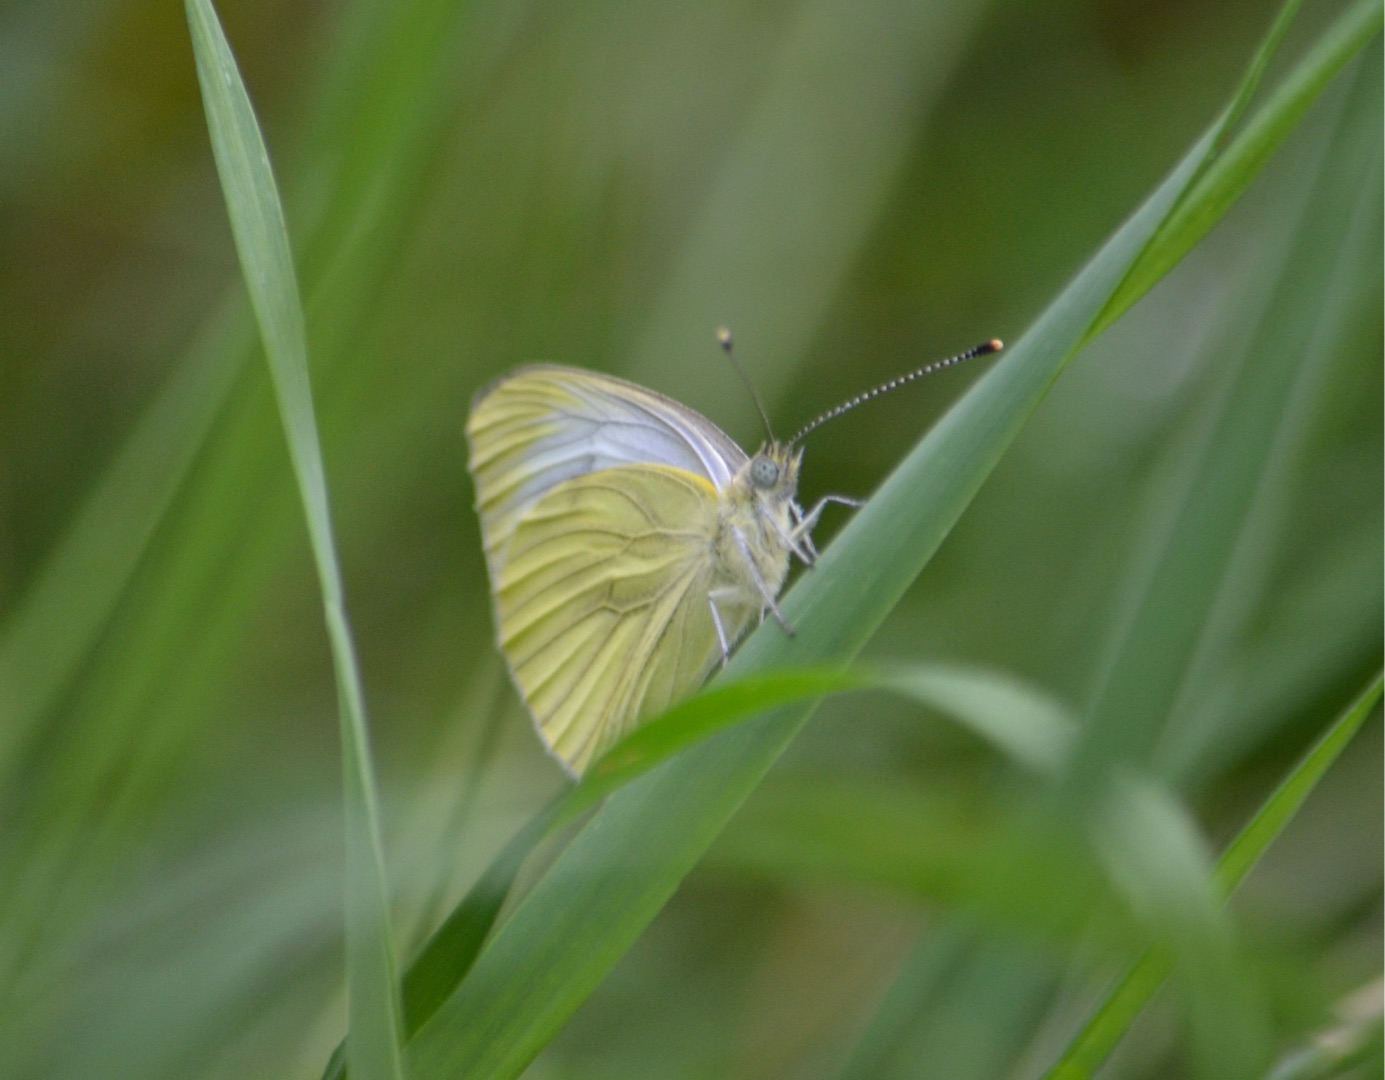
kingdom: Animalia
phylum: Arthropoda
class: Insecta
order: Lepidoptera
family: Pieridae
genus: Pieris
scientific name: Pieris napi
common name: Grønåret kålsommerfugl
